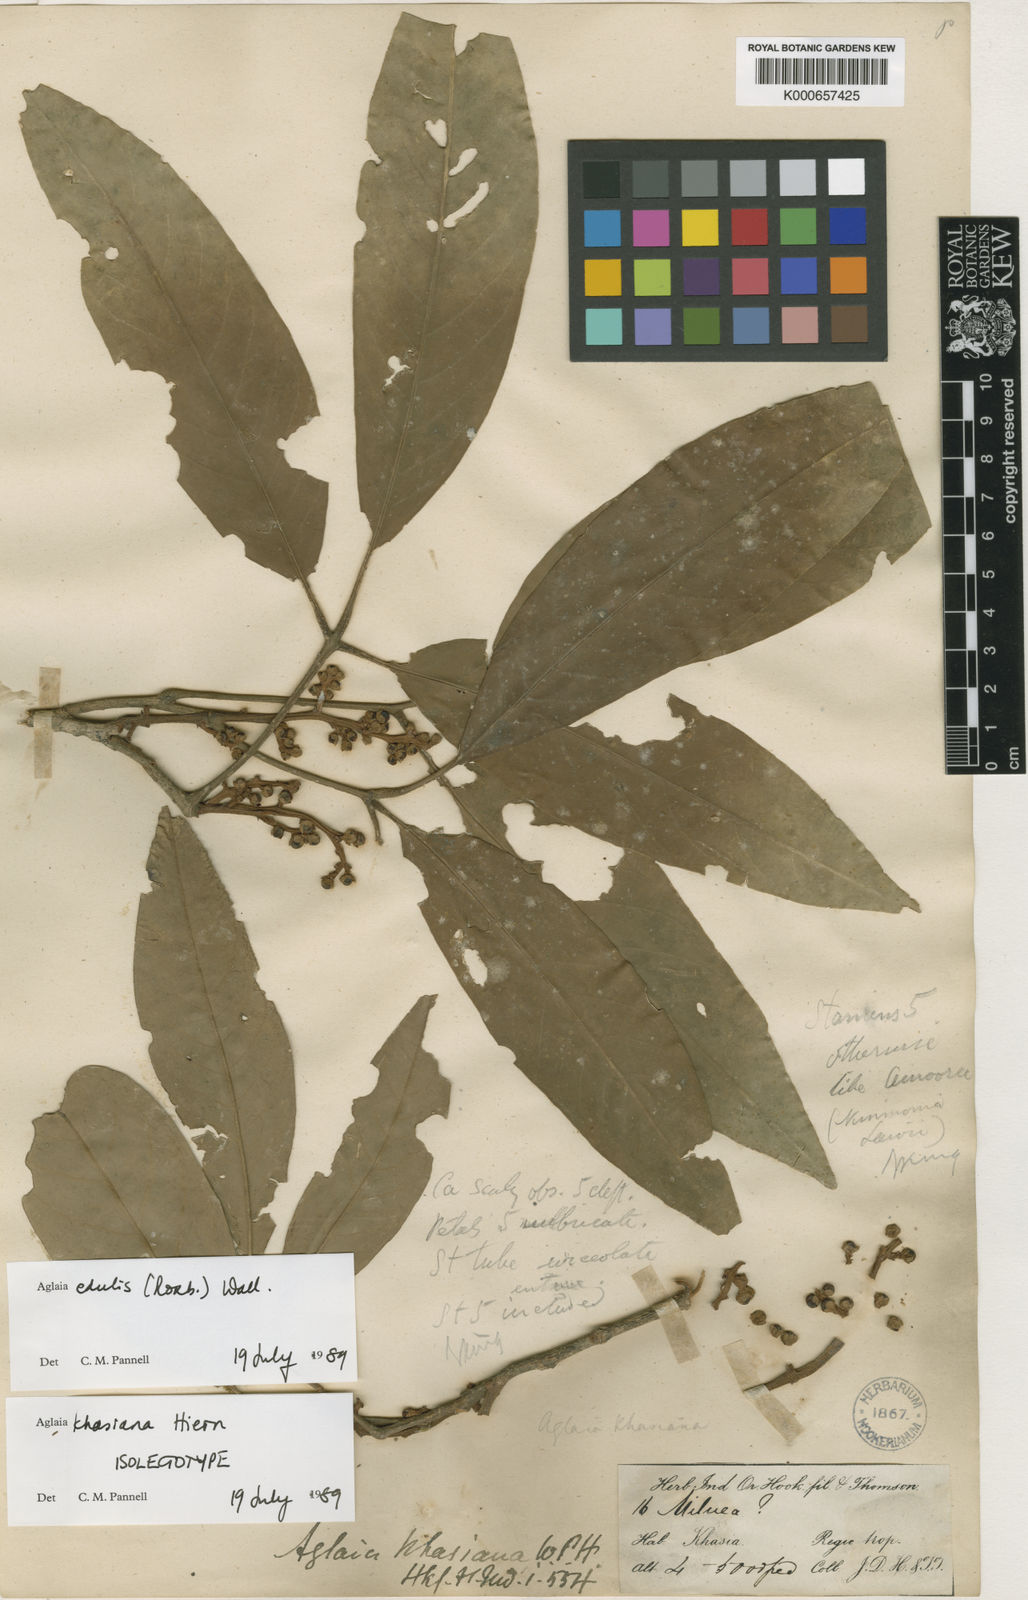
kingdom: Plantae
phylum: Tracheophyta
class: Magnoliopsida
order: Sapindales
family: Meliaceae
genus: Aglaia
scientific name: Aglaia edulis
